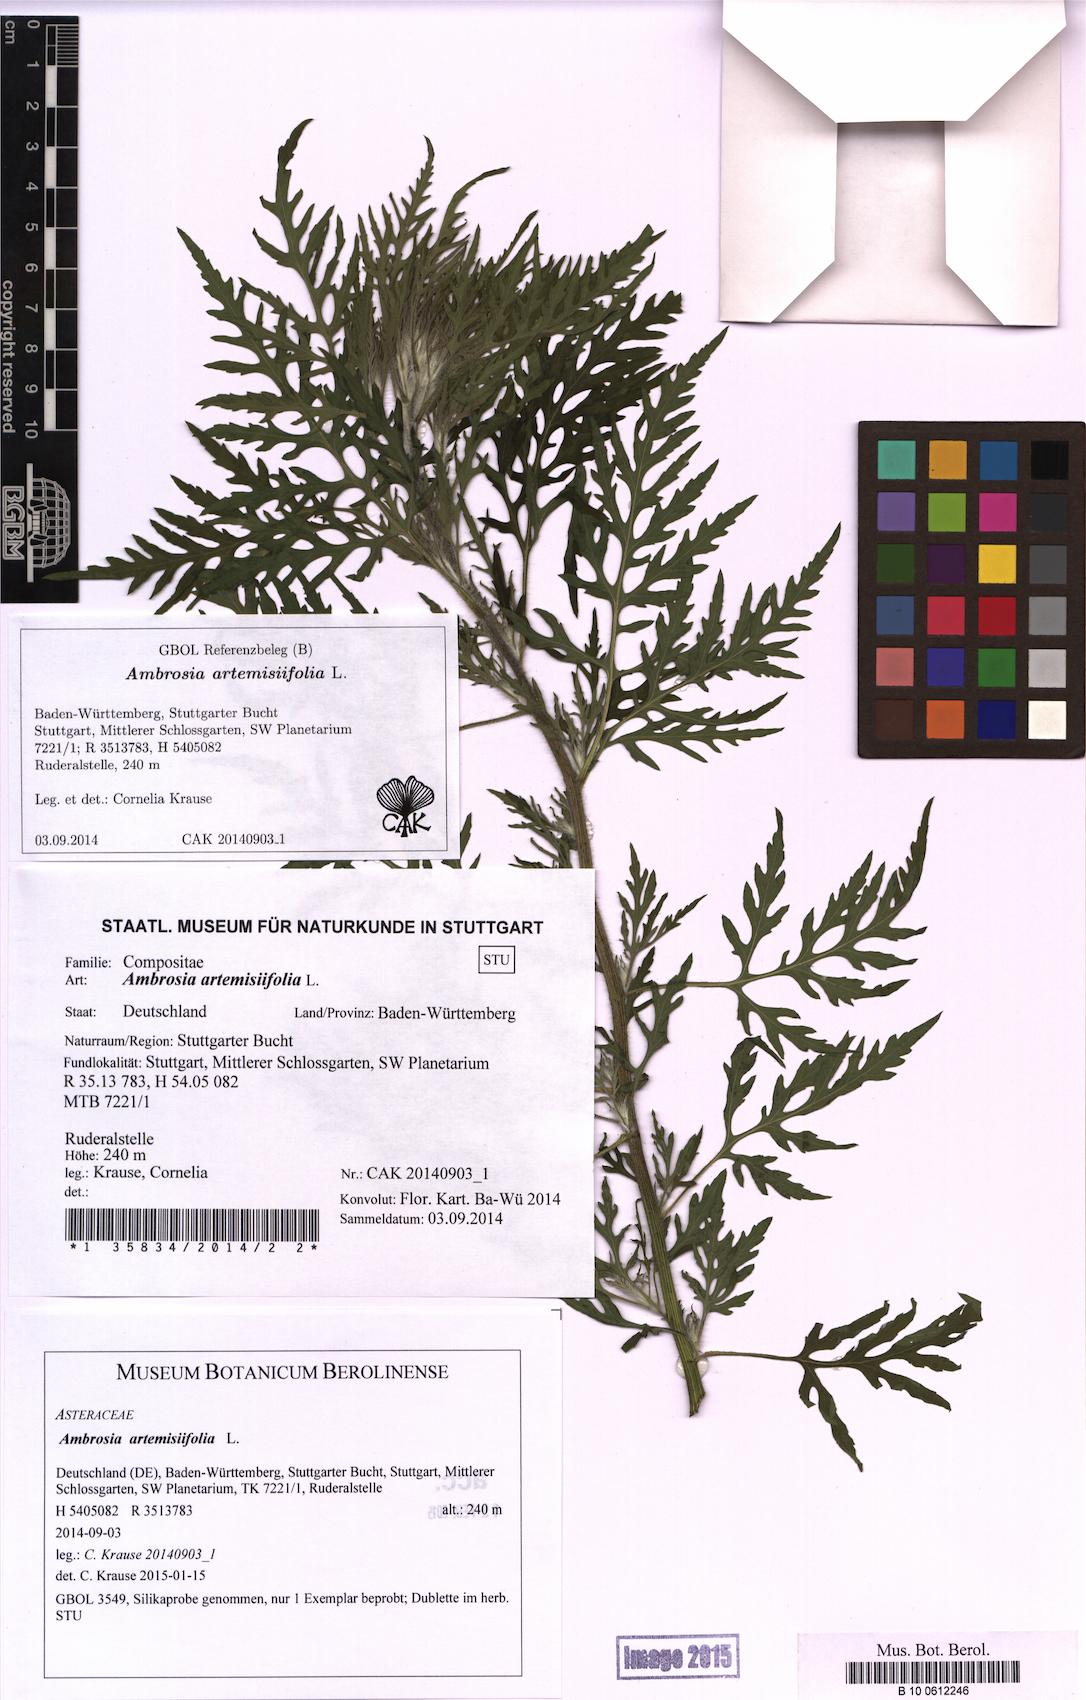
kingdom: Plantae
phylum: Tracheophyta
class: Magnoliopsida
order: Asterales
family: Asteraceae
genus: Ambrosia
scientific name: Ambrosia artemisiifolia
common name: Annual ragweed
